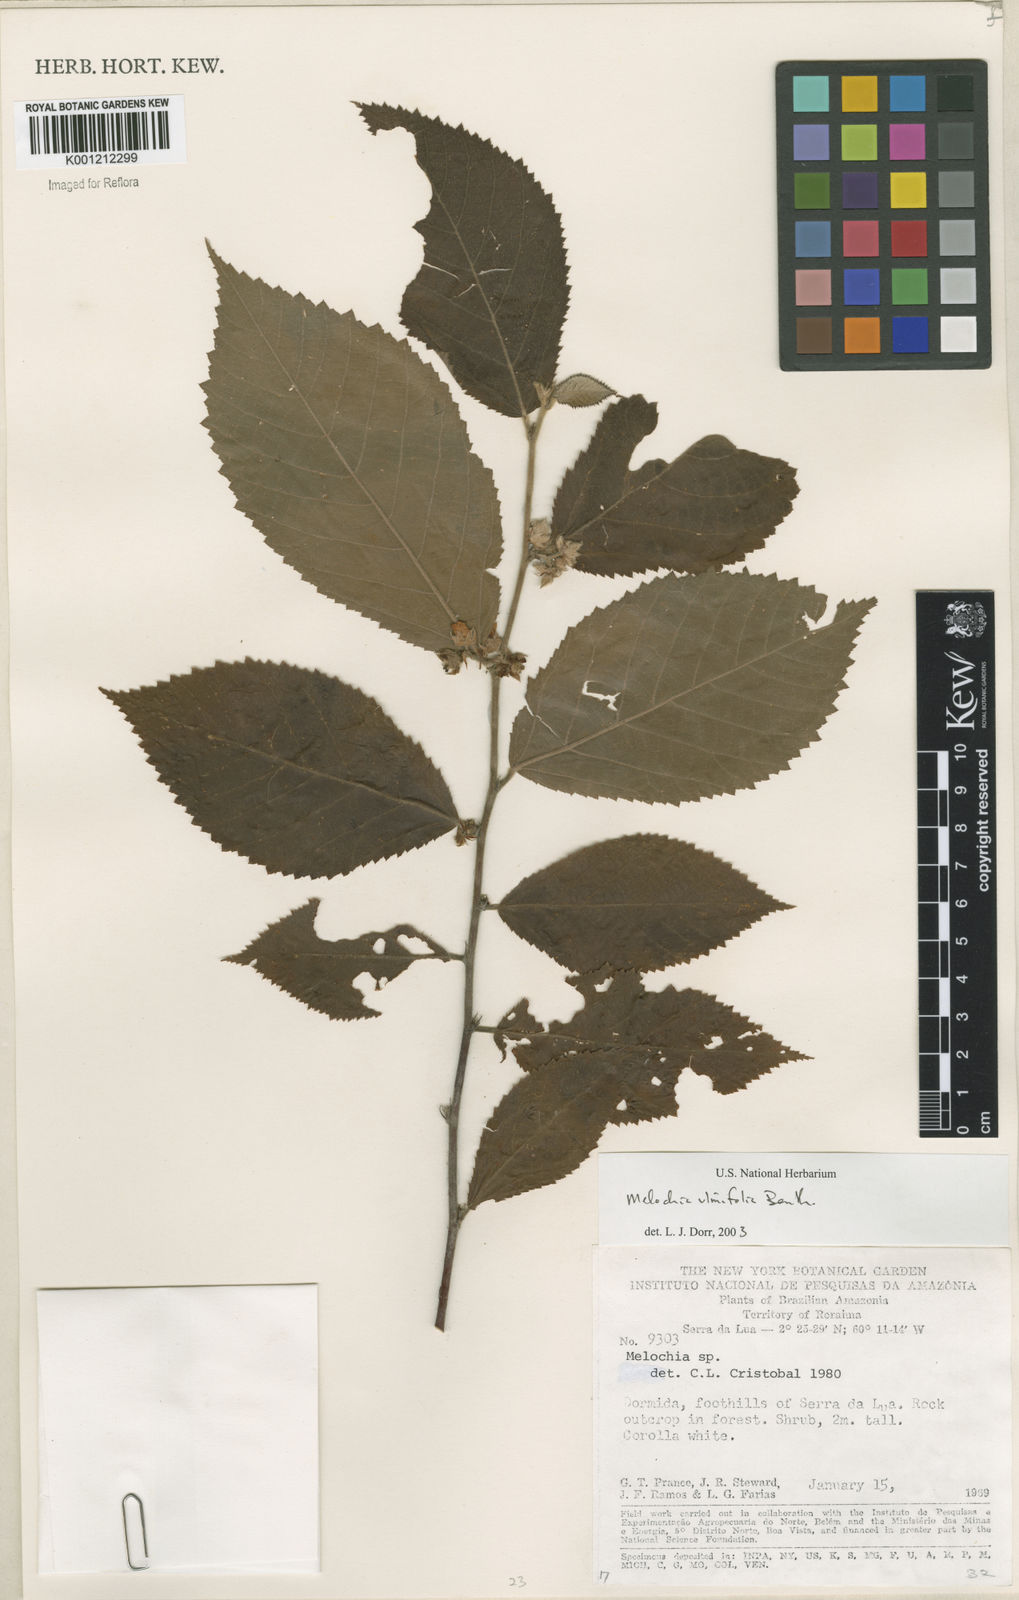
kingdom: Plantae
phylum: Tracheophyta
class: Magnoliopsida
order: Malvales
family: Malvaceae
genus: Melochia
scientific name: Melochia ulmifolia
